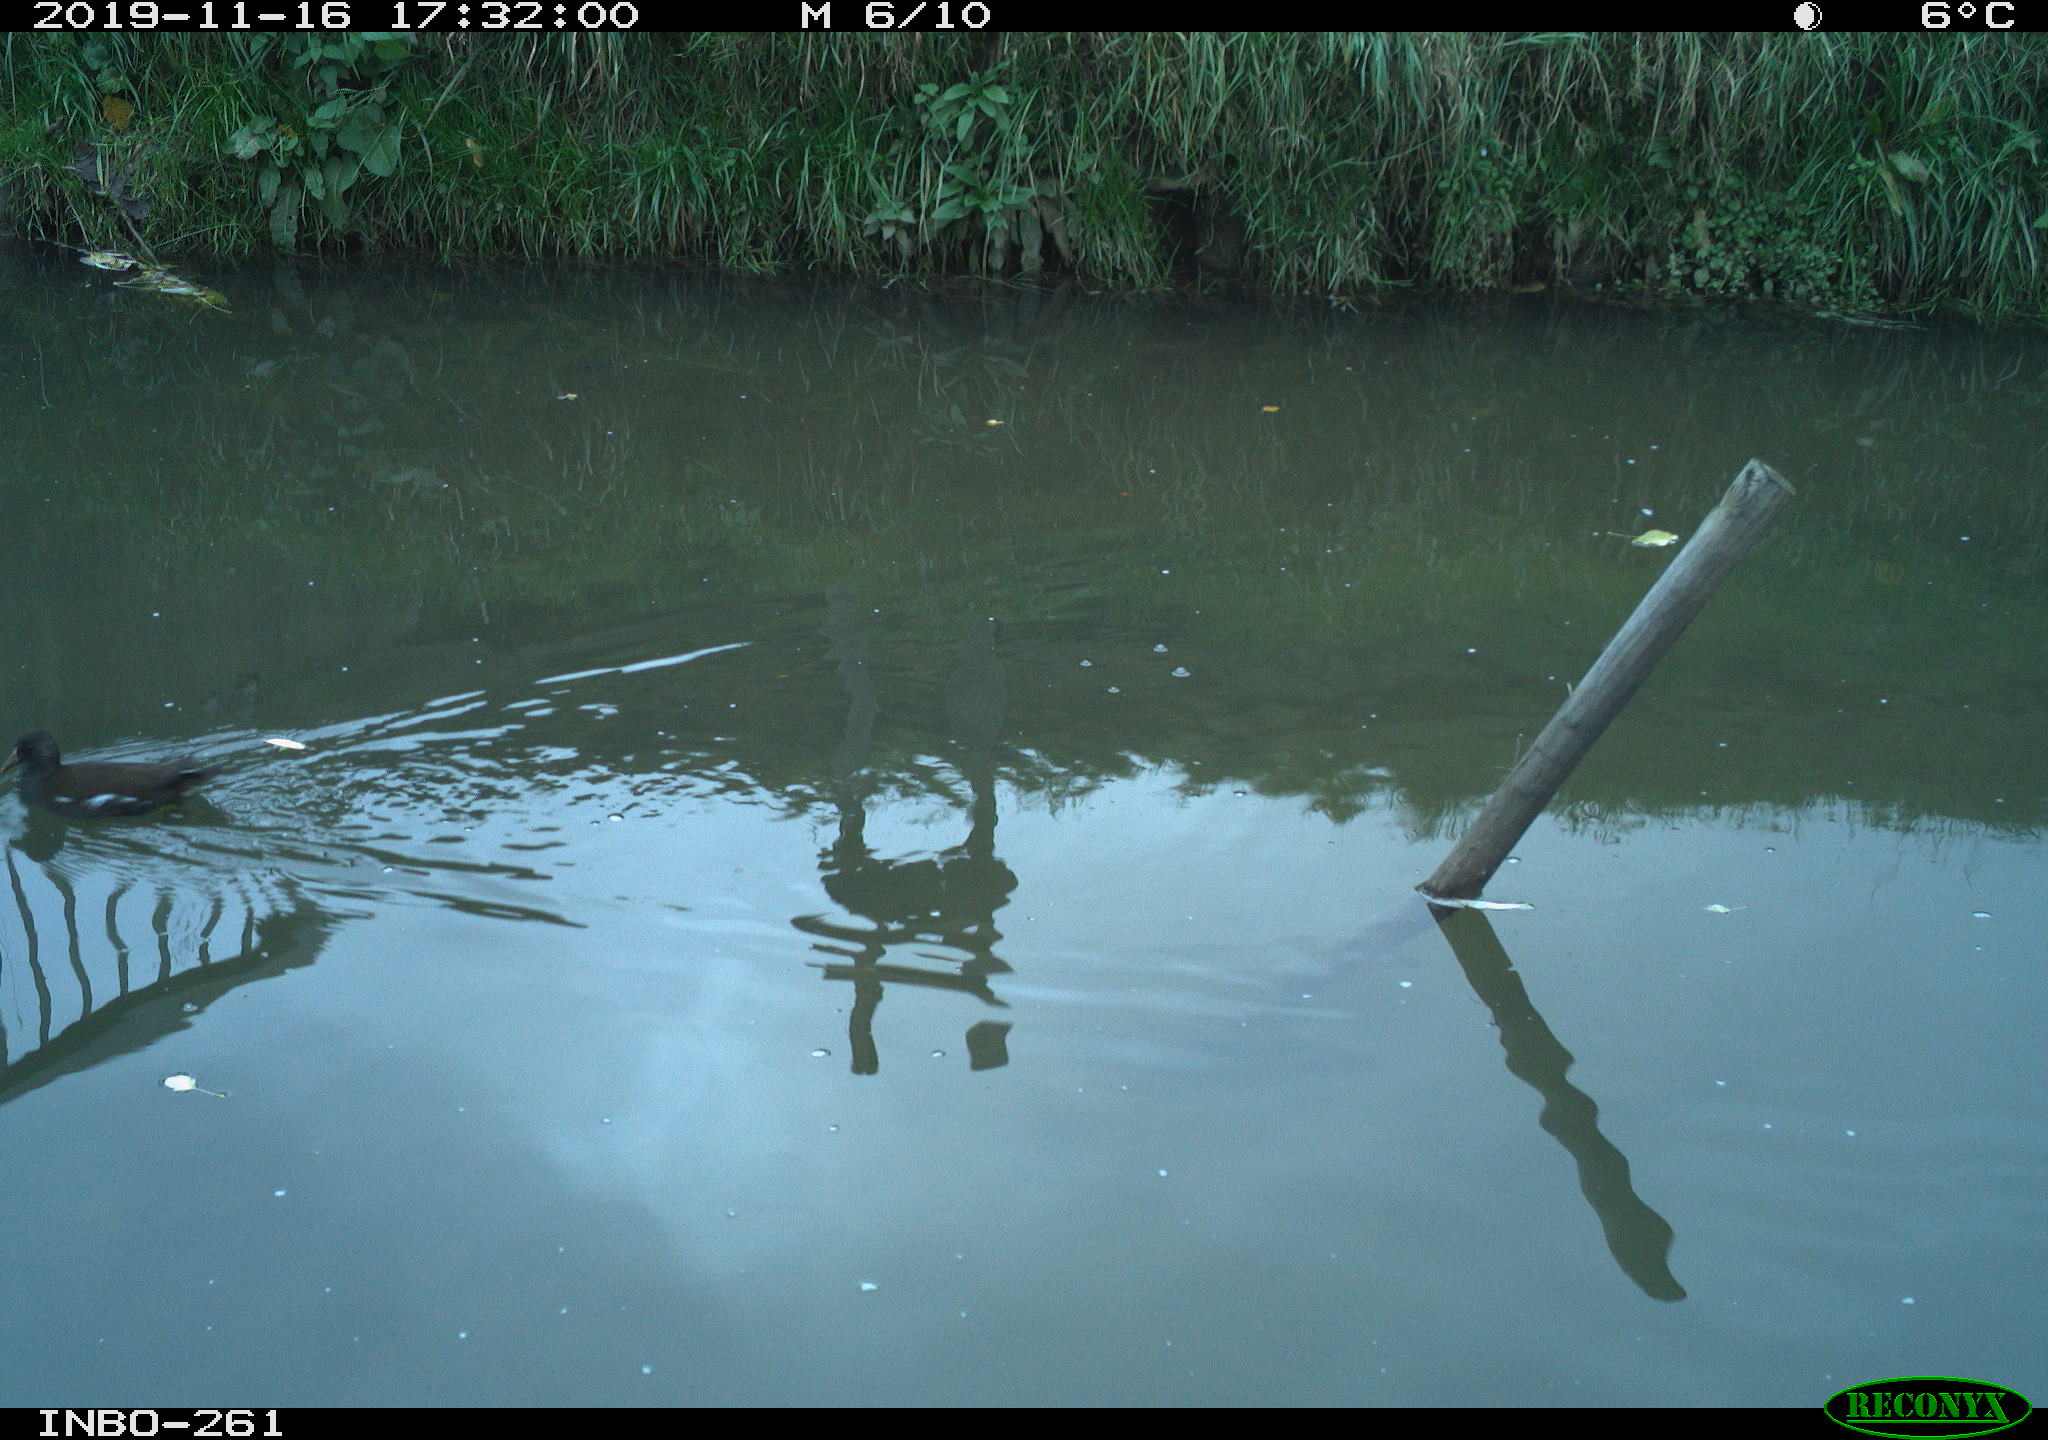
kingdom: Animalia
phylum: Chordata
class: Aves
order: Gruiformes
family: Rallidae
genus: Gallinula
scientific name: Gallinula chloropus
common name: Common moorhen
